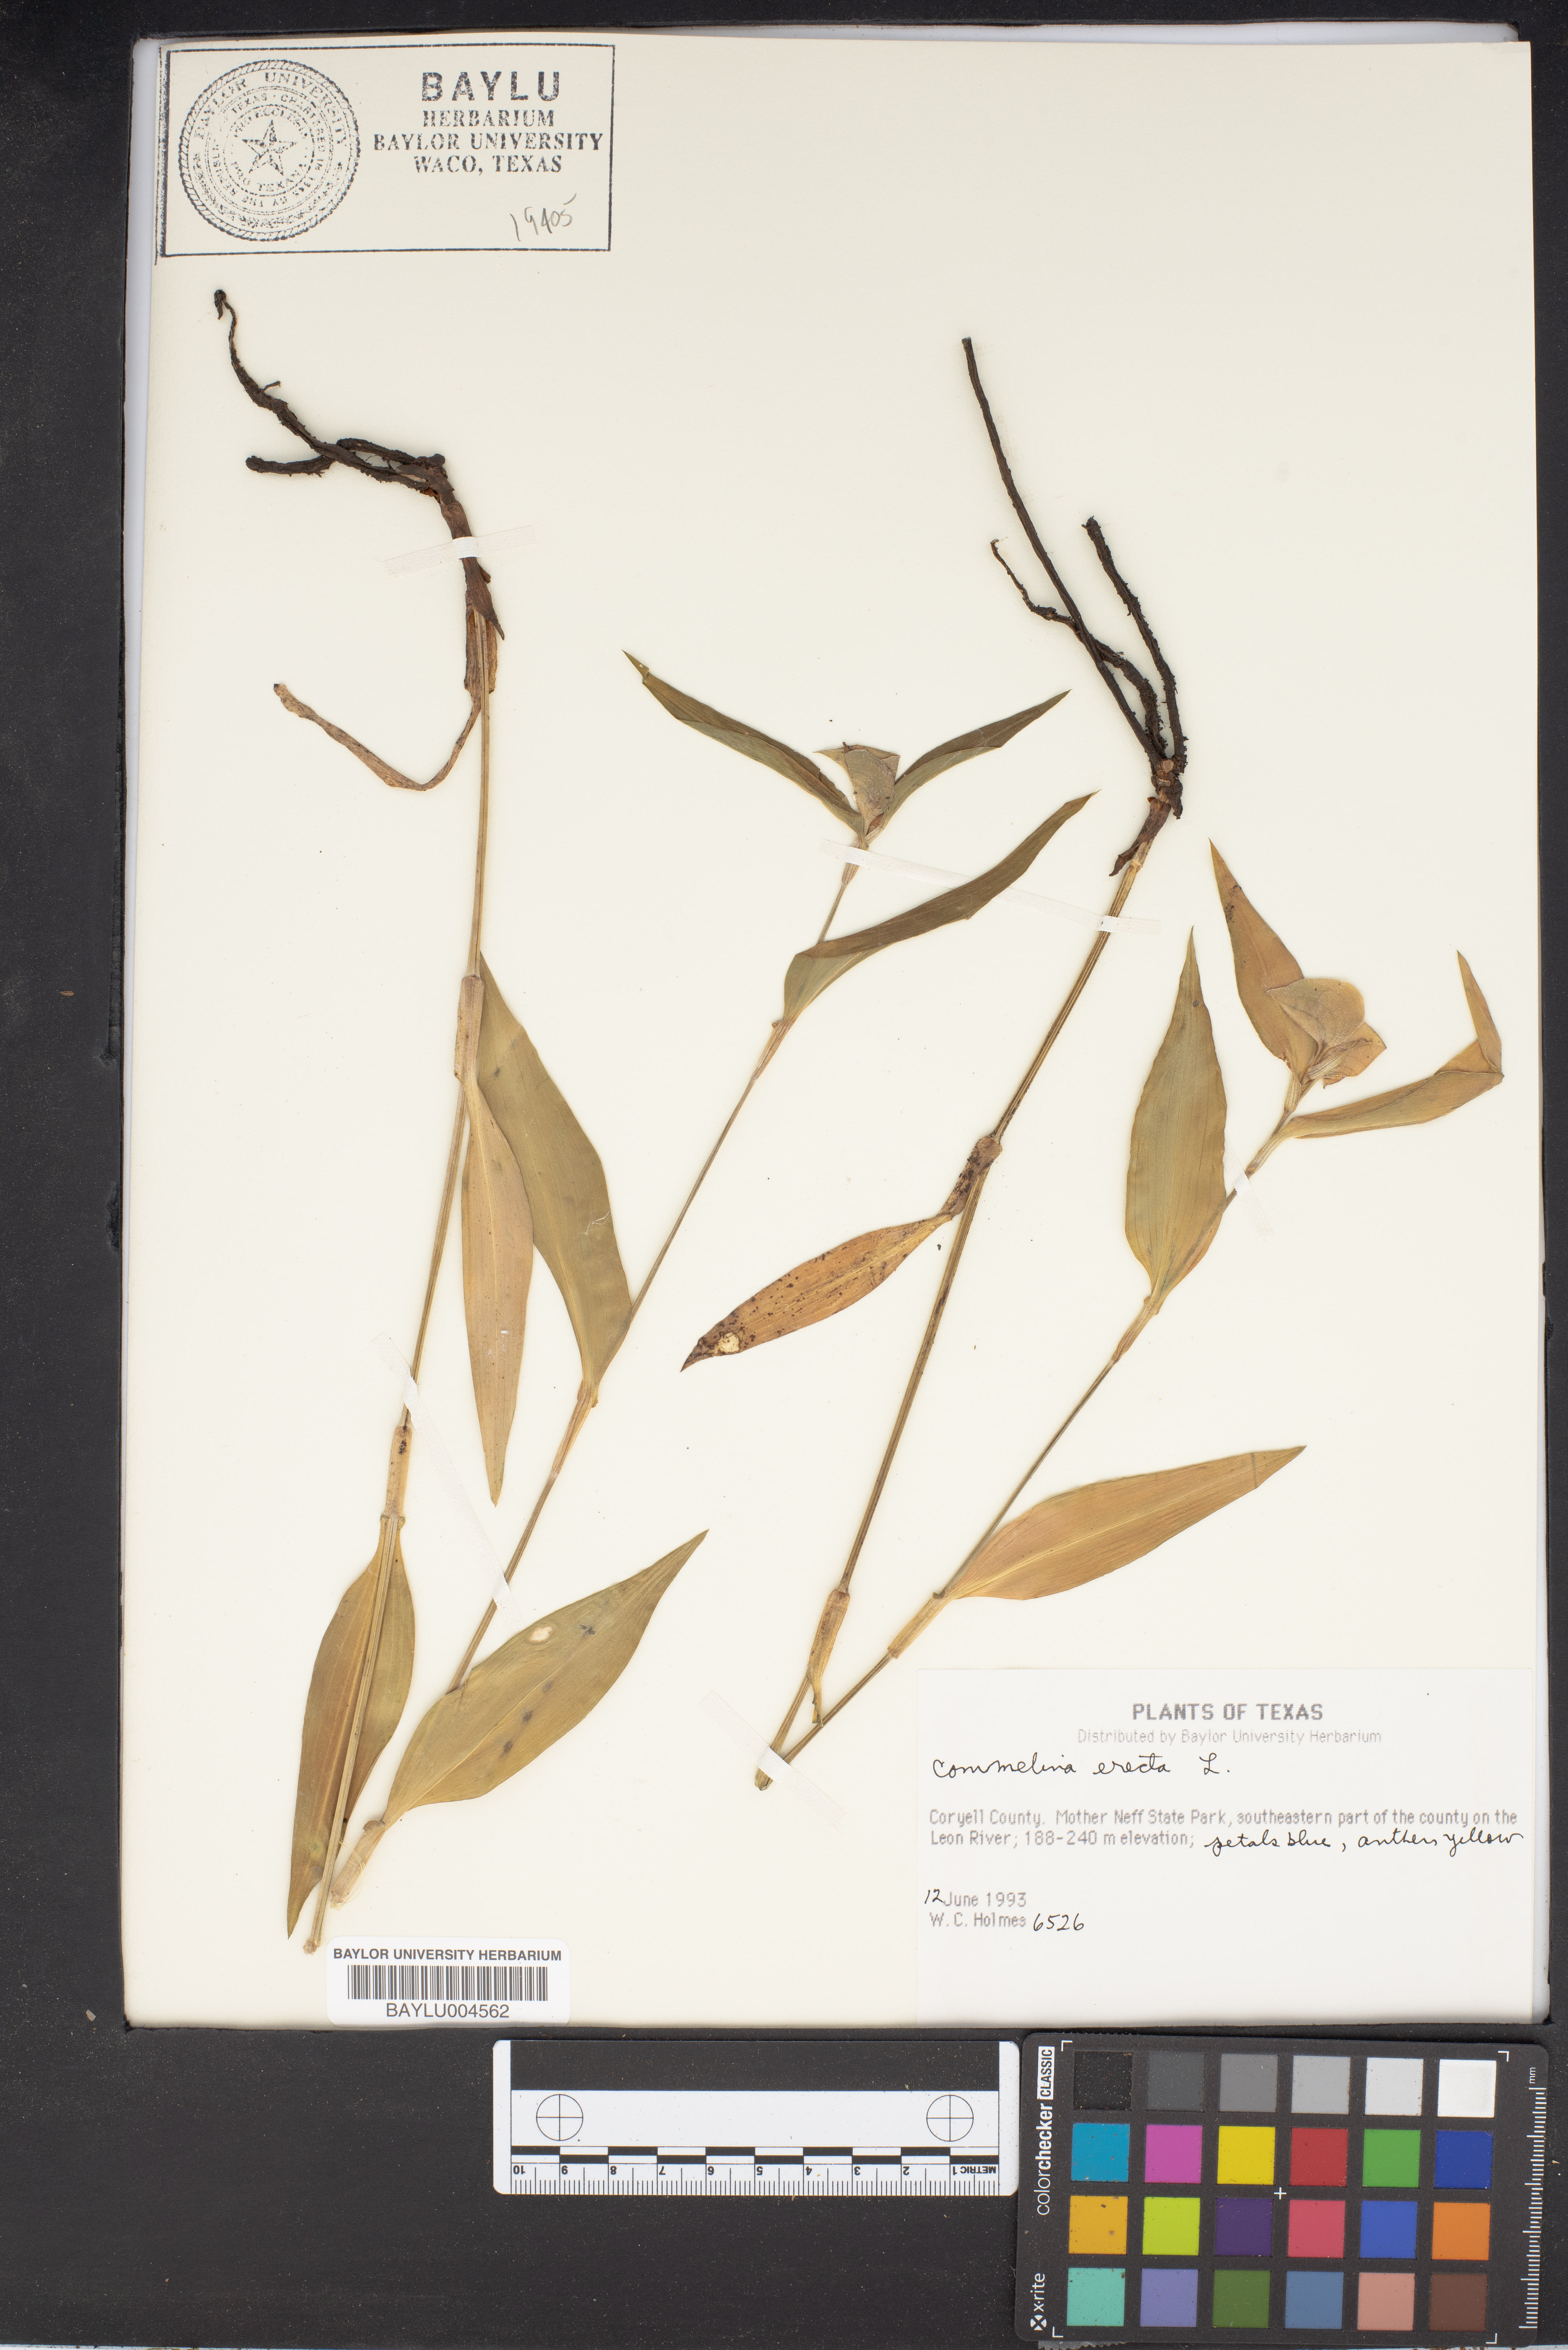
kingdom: Plantae
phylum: Tracheophyta
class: Liliopsida
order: Commelinales
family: Commelinaceae
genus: Commelina
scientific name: Commelina erecta
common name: Blousel blommetjie
